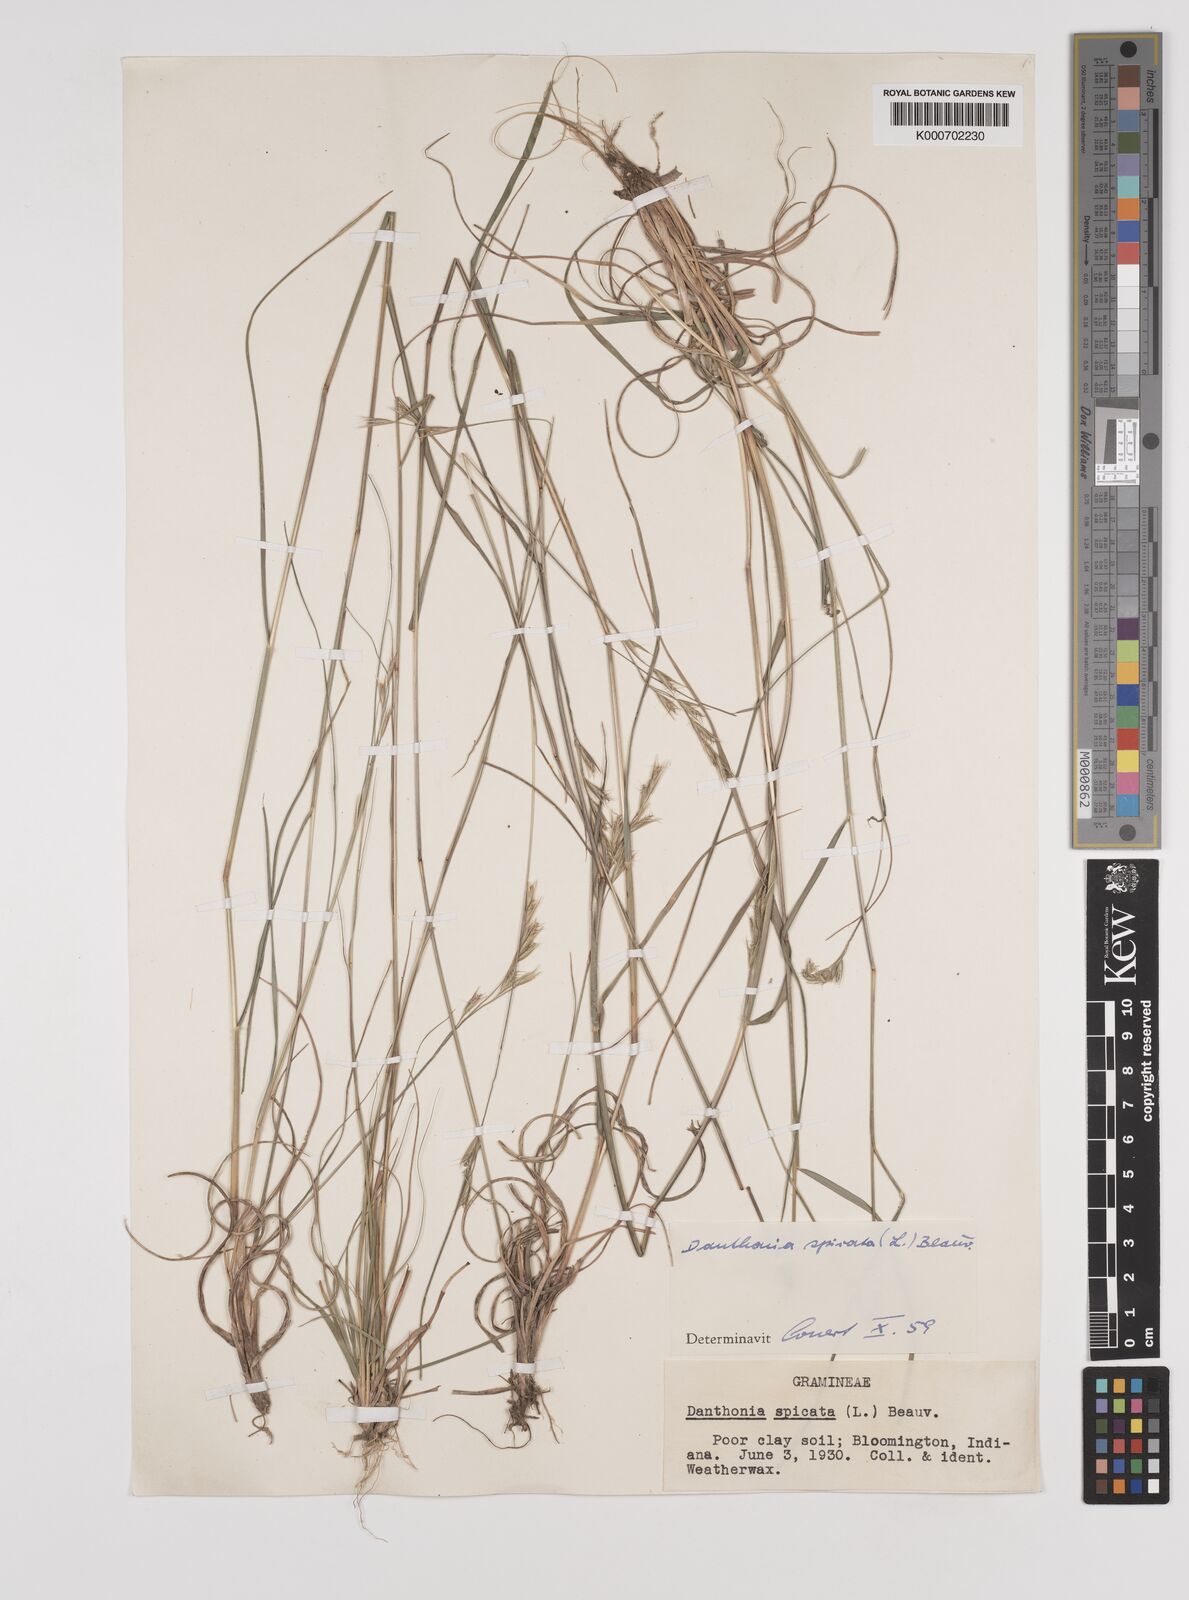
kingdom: Plantae
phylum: Tracheophyta
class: Liliopsida
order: Poales
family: Poaceae
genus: Danthonia
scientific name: Danthonia spicata
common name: Common wild oatgrass
